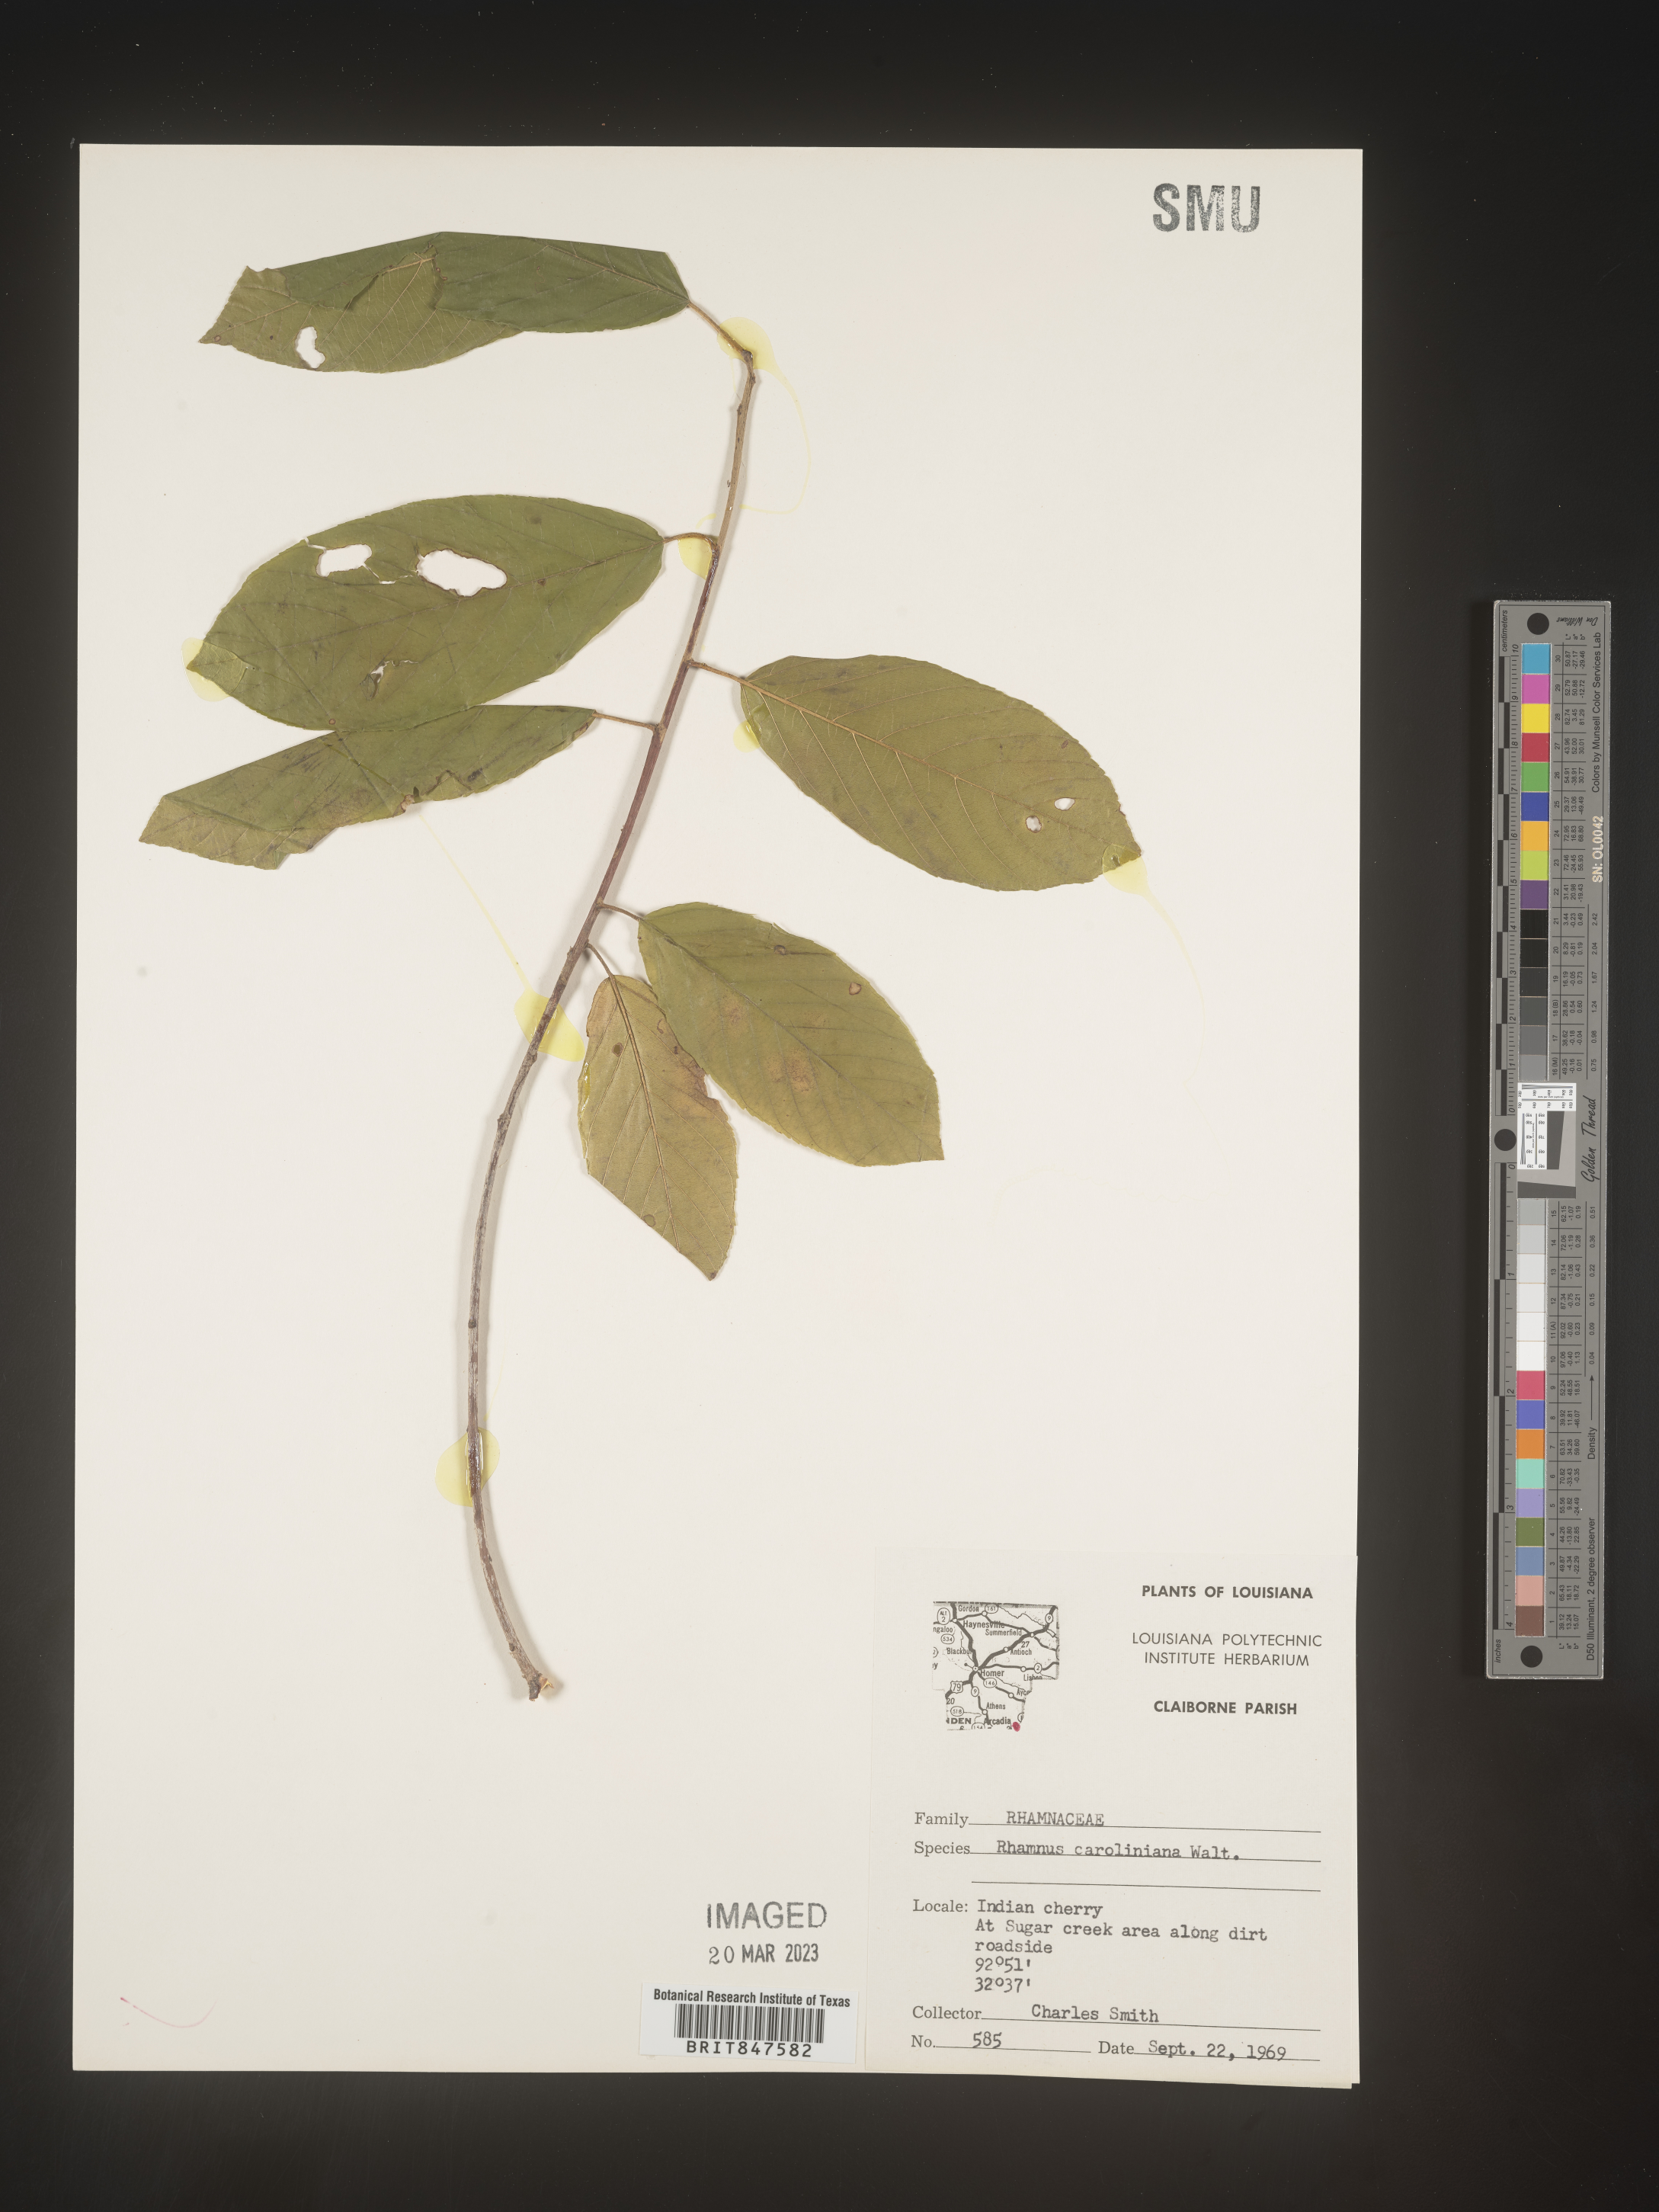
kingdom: Plantae
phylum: Tracheophyta
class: Magnoliopsida
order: Rosales
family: Rhamnaceae
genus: Frangula
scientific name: Frangula caroliniana
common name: Carolina buckthorn
